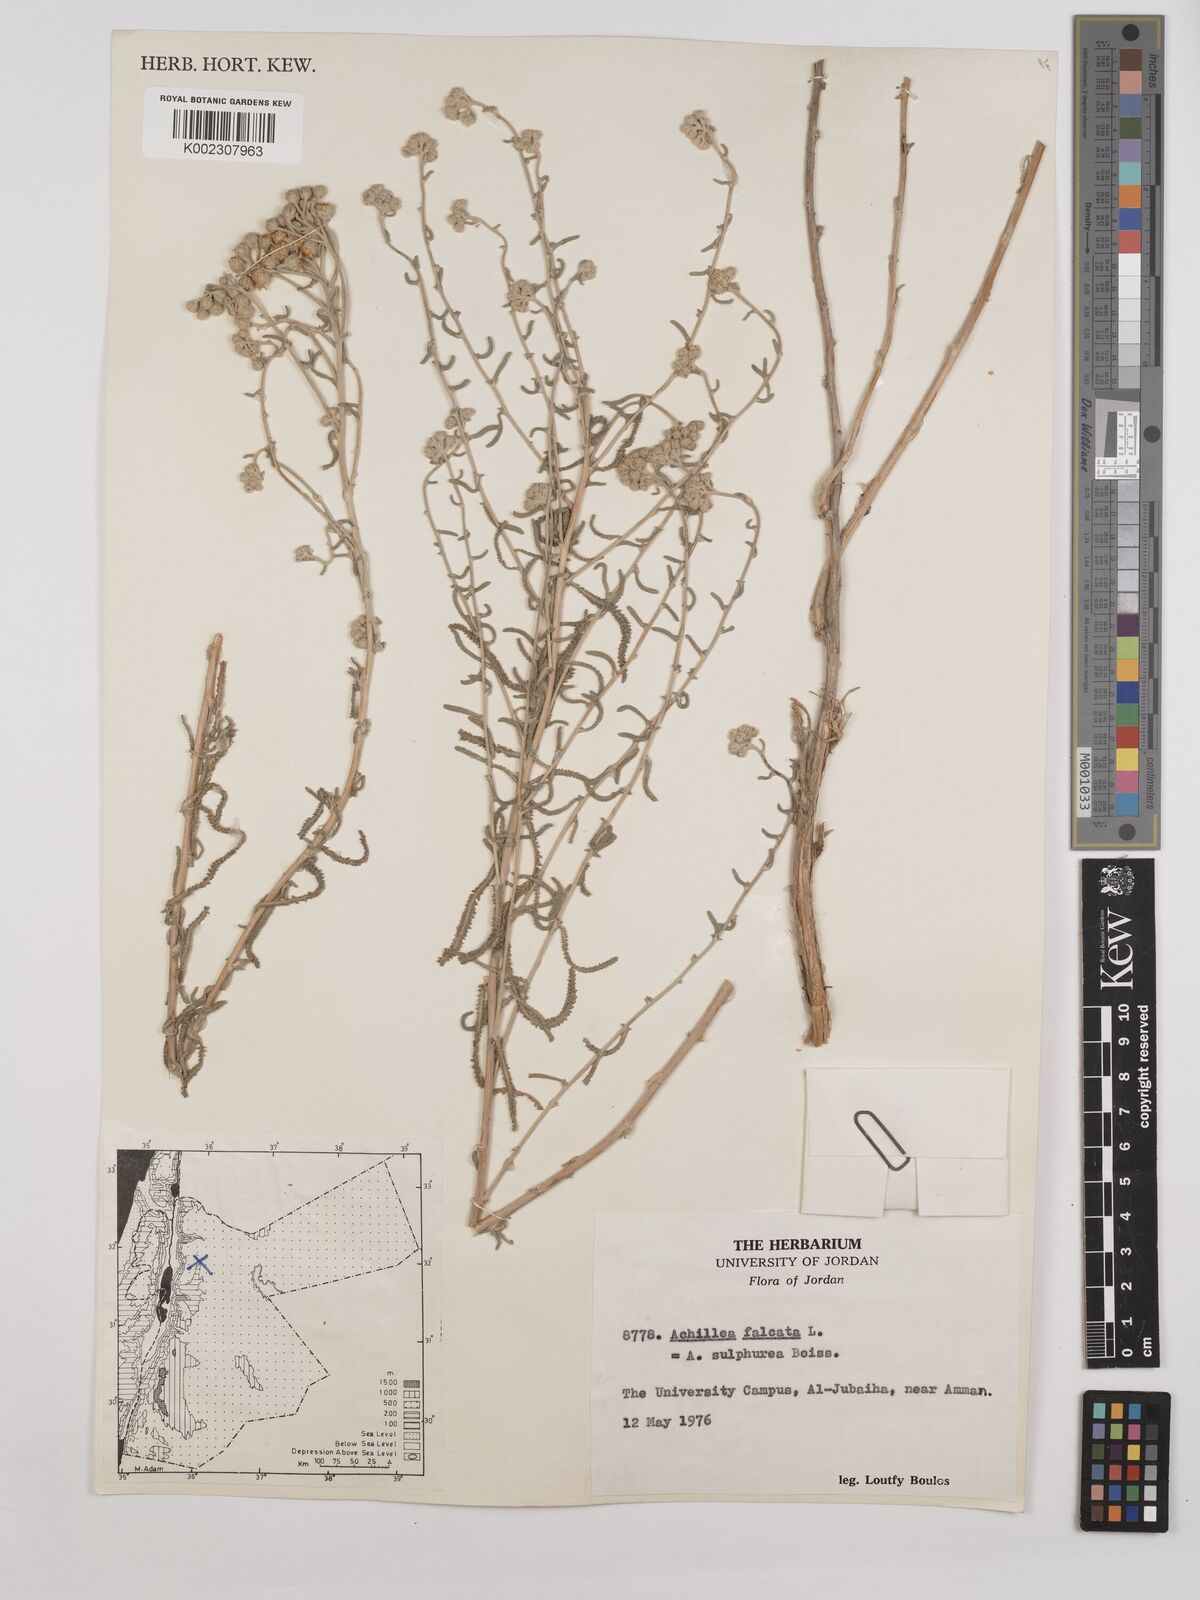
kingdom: Plantae
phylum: Tracheophyta
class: Magnoliopsida
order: Asterales
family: Asteraceae
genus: Achillea
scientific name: Achillea falcata
